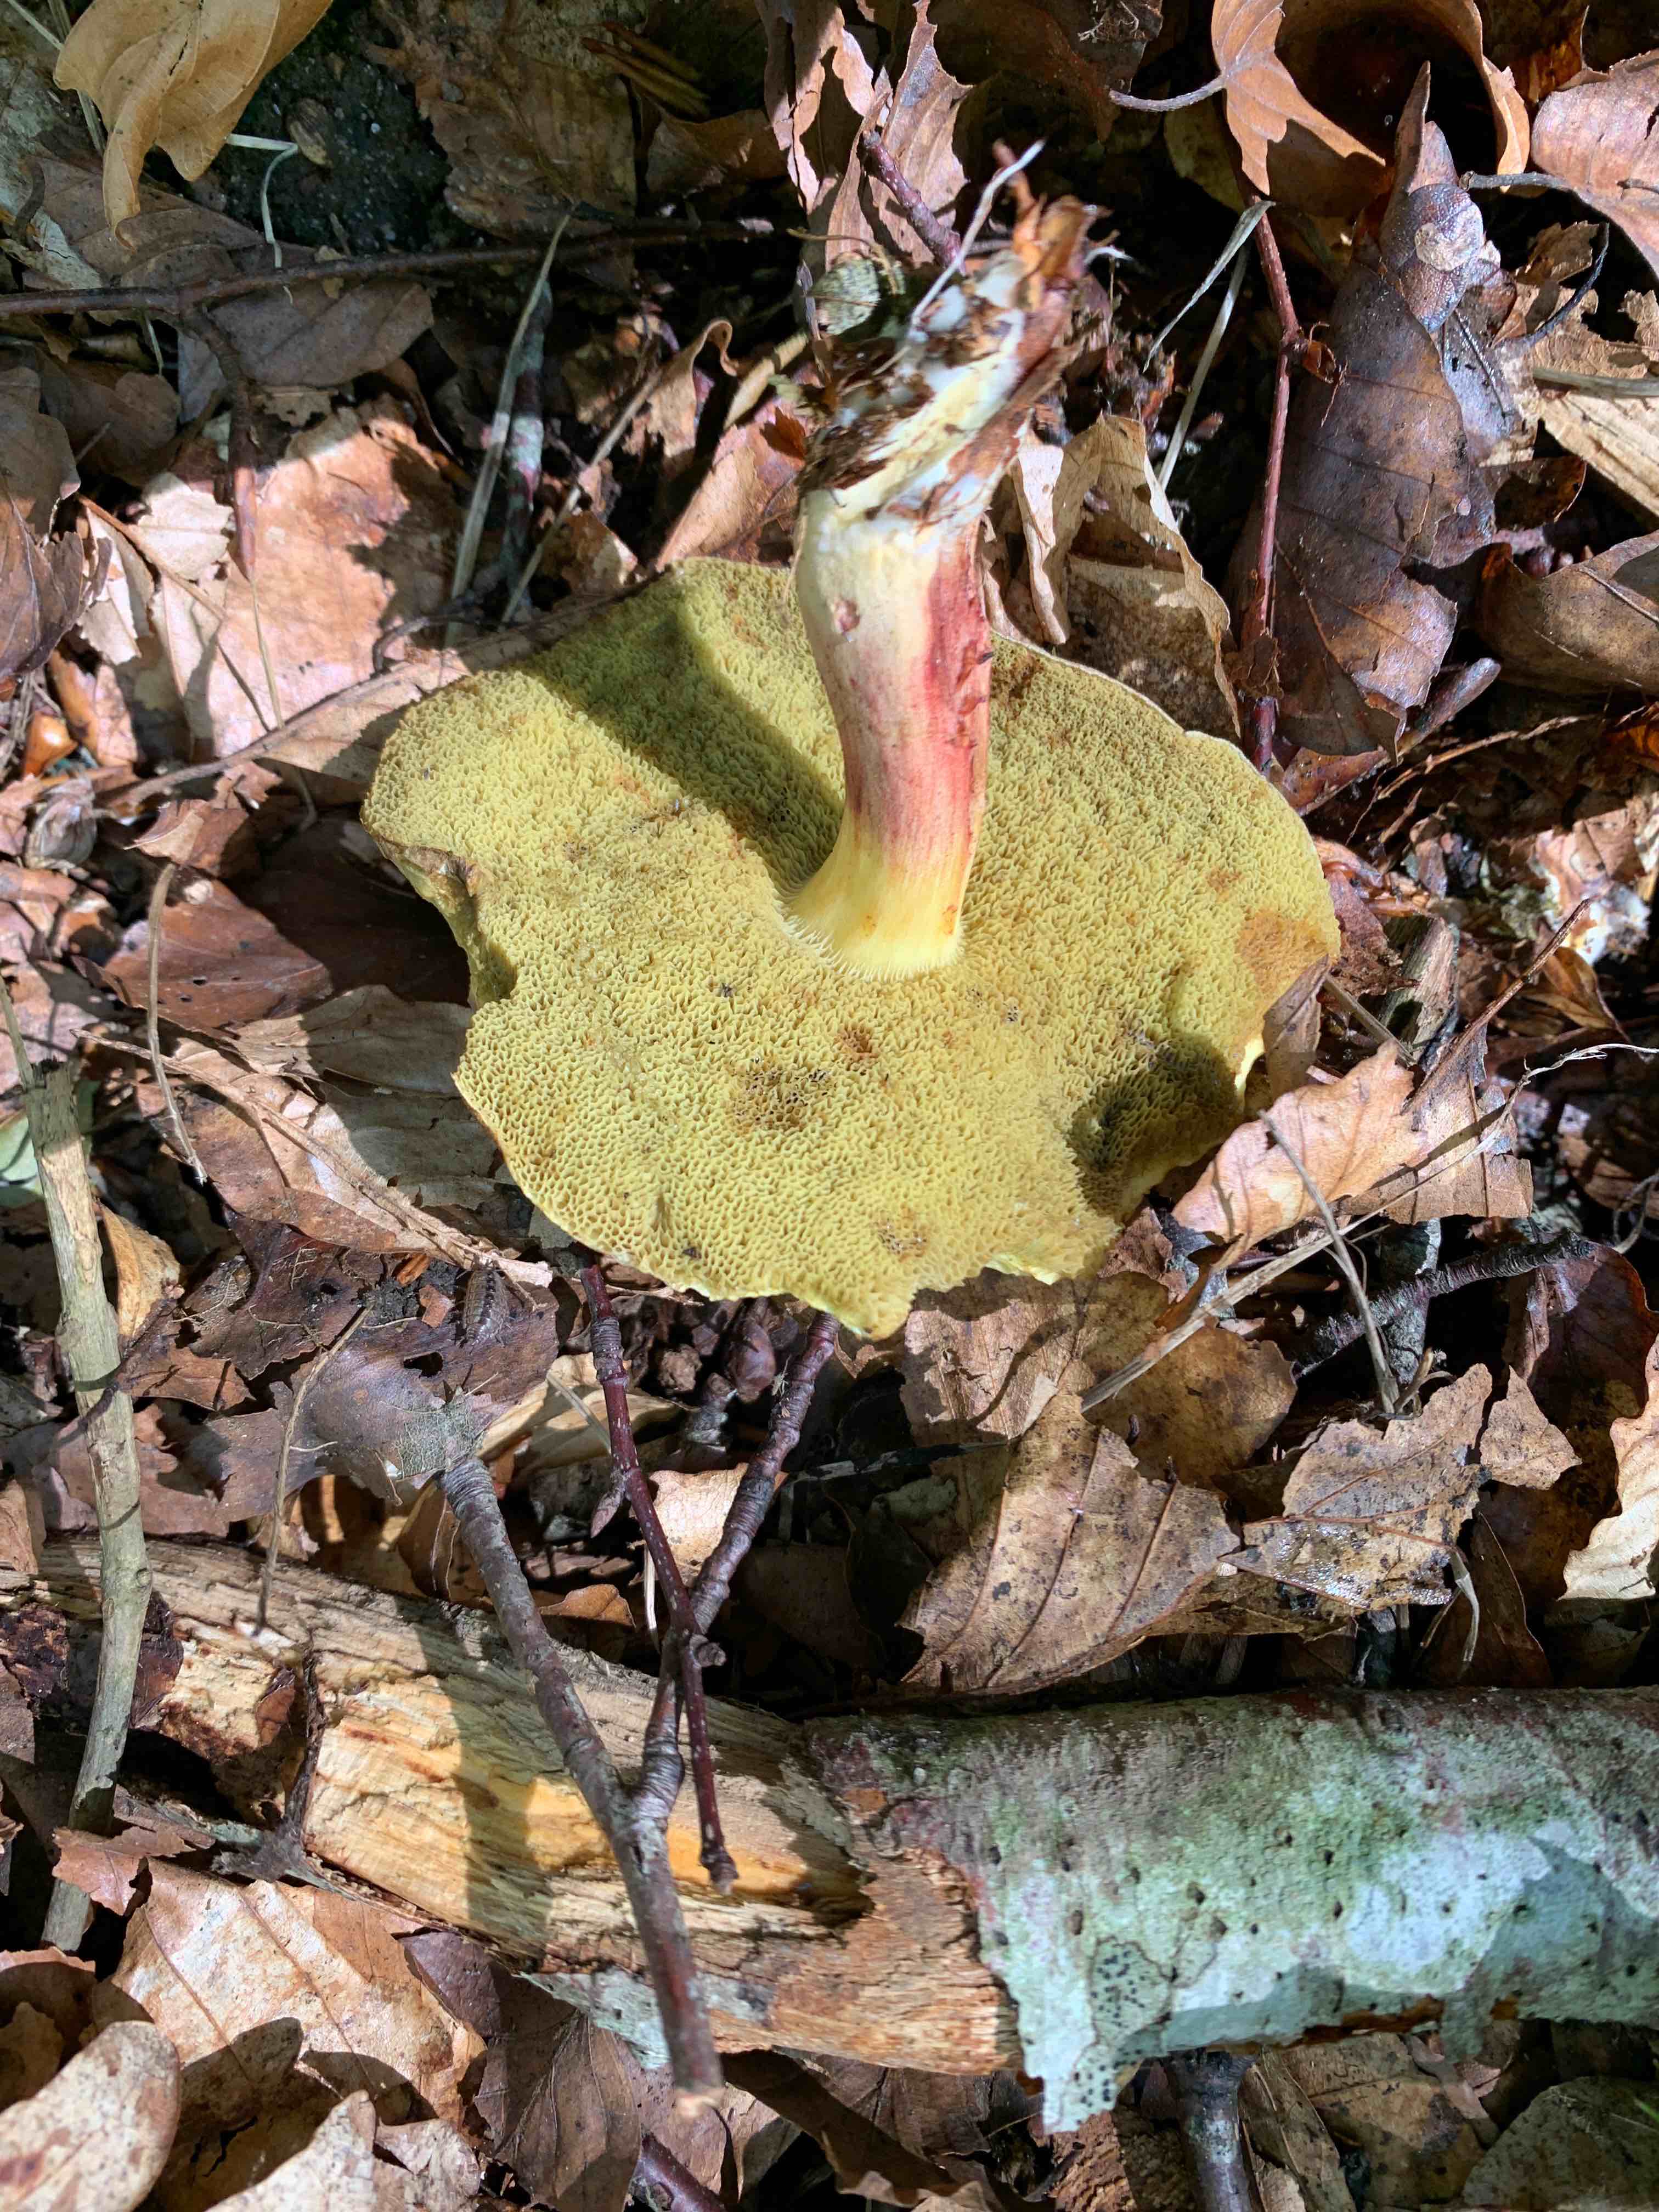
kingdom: Fungi
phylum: Basidiomycota
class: Agaricomycetes
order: Boletales
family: Boletaceae
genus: Xerocomellus
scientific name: Xerocomellus chrysenteron
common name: rødsprukken rørhat
